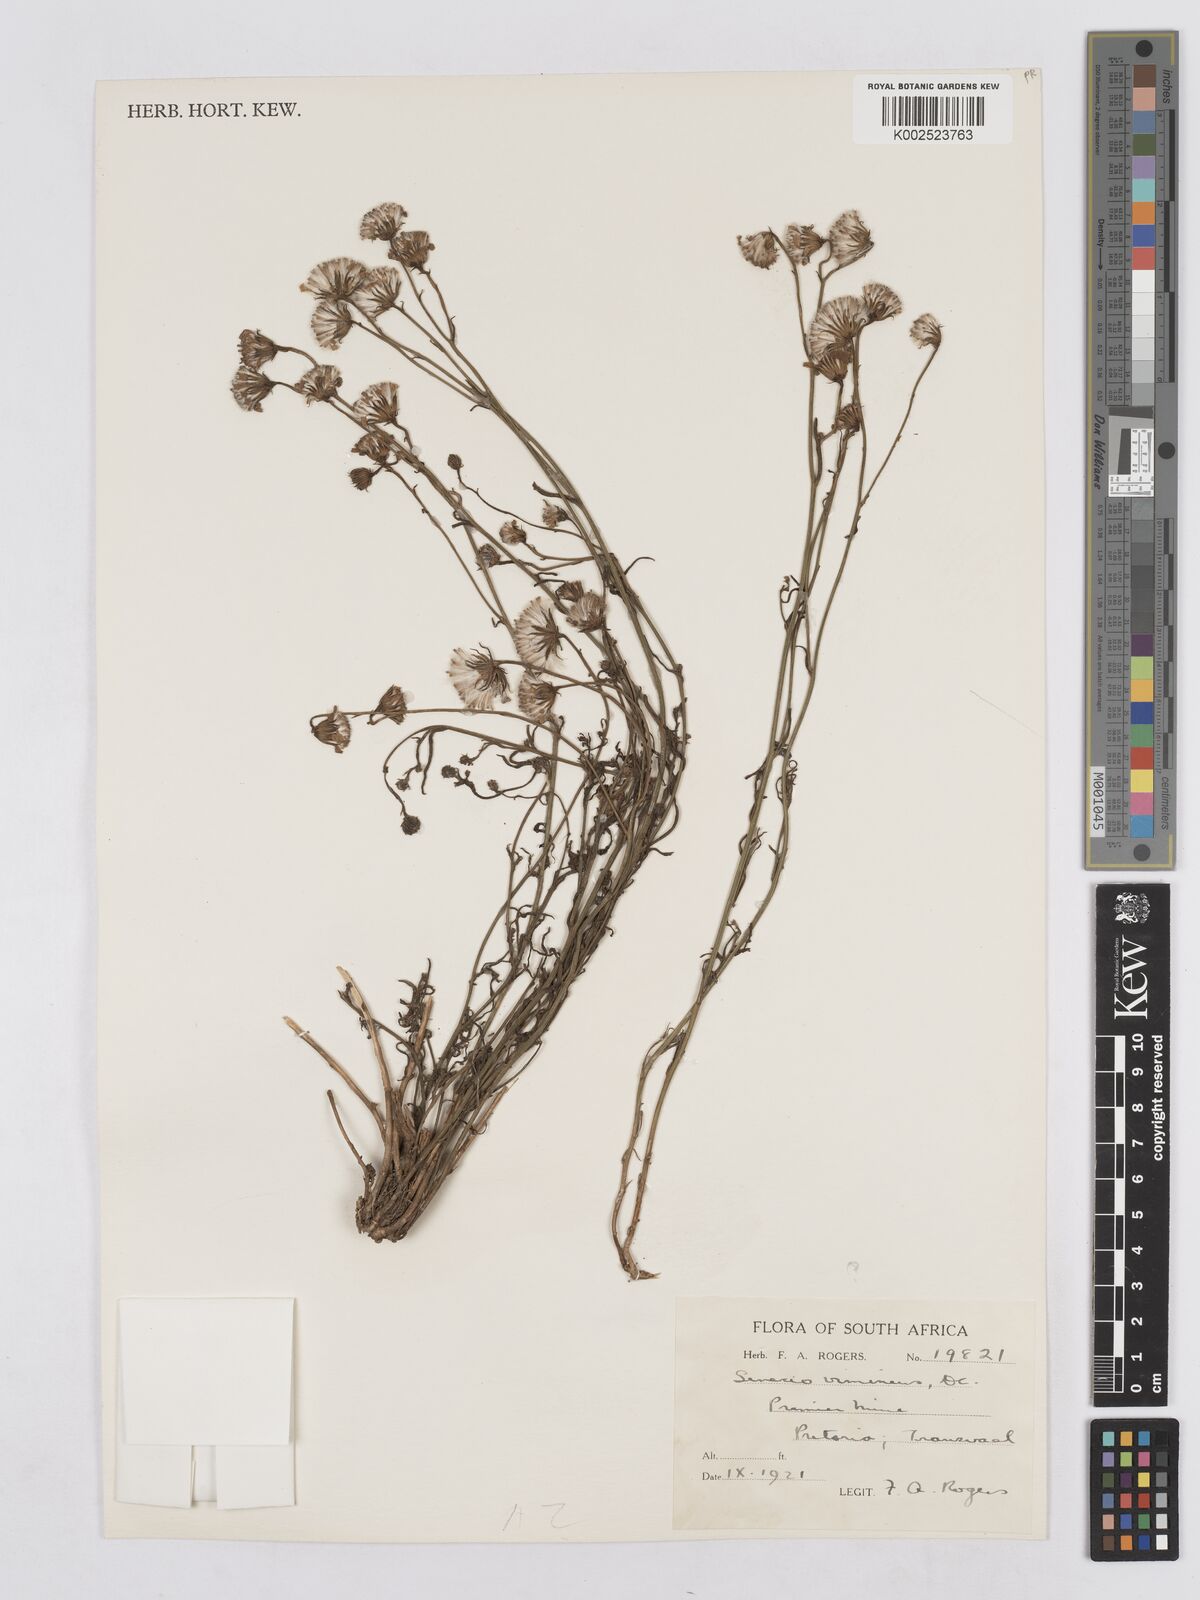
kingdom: Plantae
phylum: Tracheophyta
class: Magnoliopsida
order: Asterales
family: Asteraceae
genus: Senecio
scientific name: Senecio vimineus
